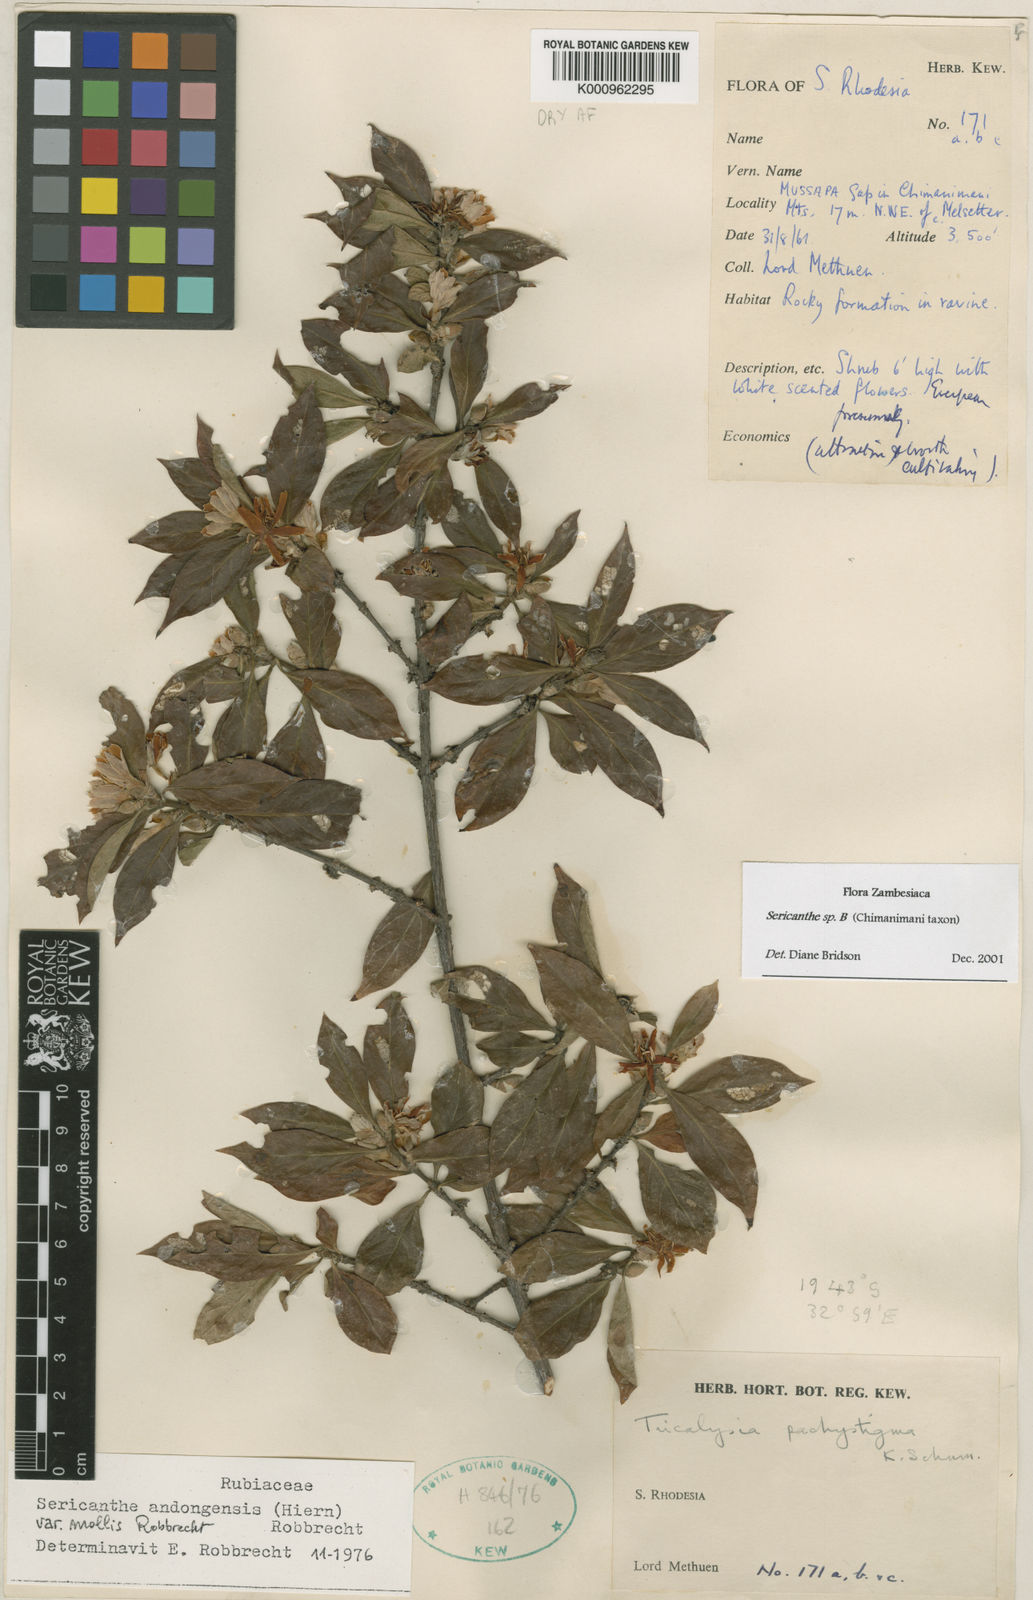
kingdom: Plantae
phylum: Tracheophyta
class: Magnoliopsida
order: Gentianales
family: Rubiaceae
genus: Sericanthe
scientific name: Sericanthe
